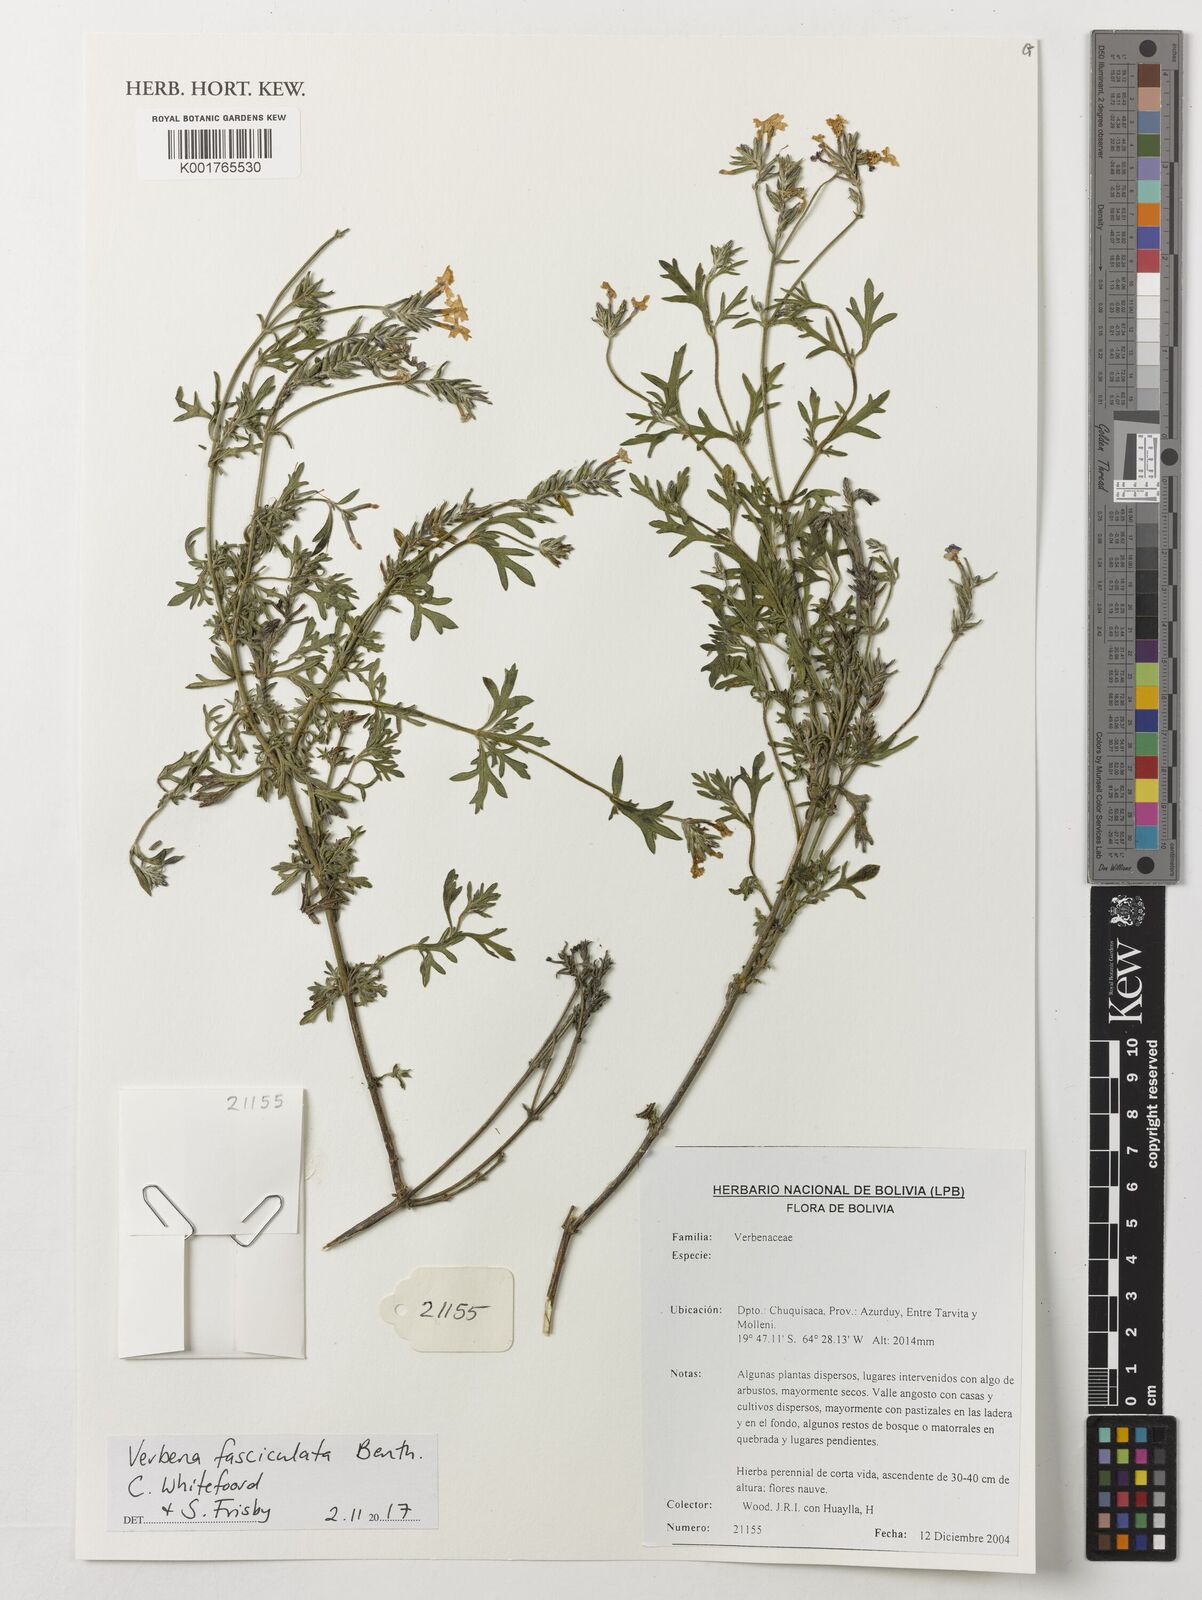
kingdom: Plantae
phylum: Tracheophyta
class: Magnoliopsida
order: Lamiales
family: Verbenaceae
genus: Junellia
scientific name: Junellia fasciculata
